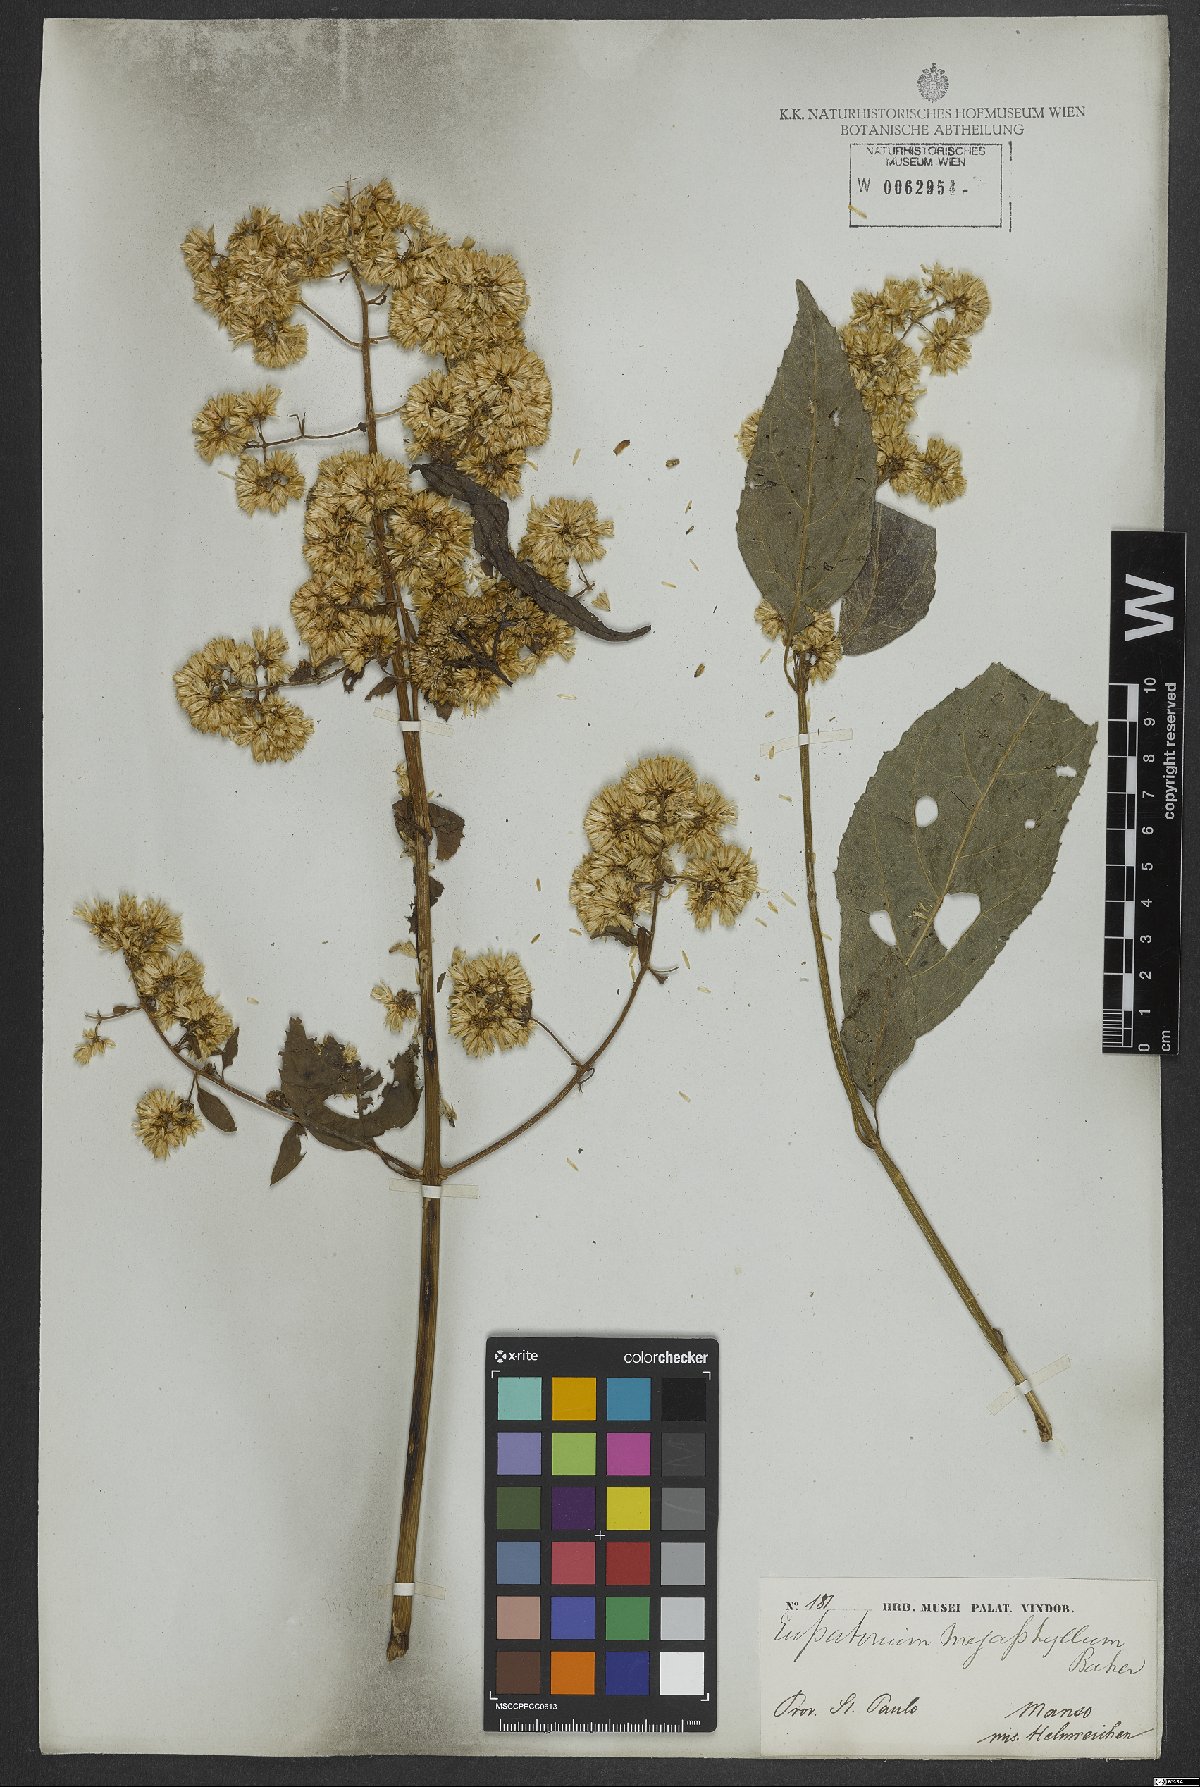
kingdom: Plantae
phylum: Tracheophyta
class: Magnoliopsida
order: Asterales
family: Asteraceae
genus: Critonia
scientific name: Critonia megaphylla
